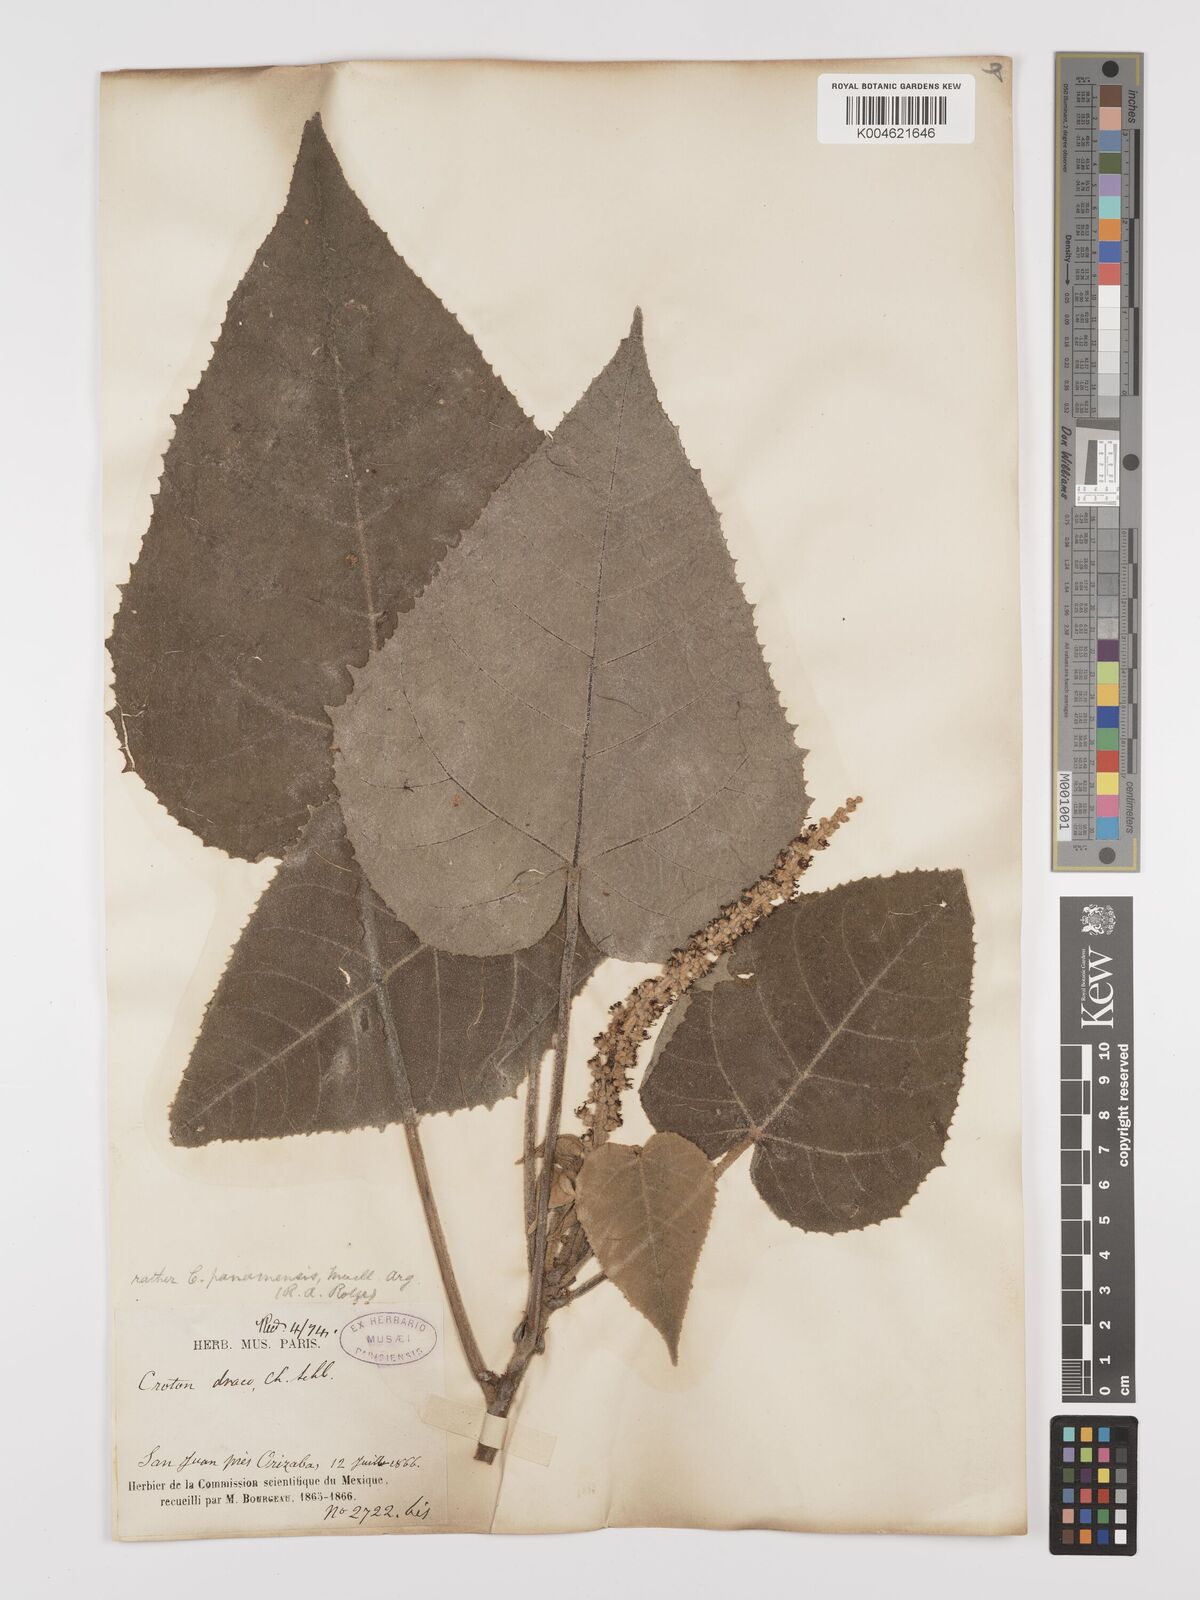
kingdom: Plantae
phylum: Tracheophyta
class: Magnoliopsida
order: Malpighiales
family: Euphorbiaceae
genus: Croton
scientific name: Croton draco
